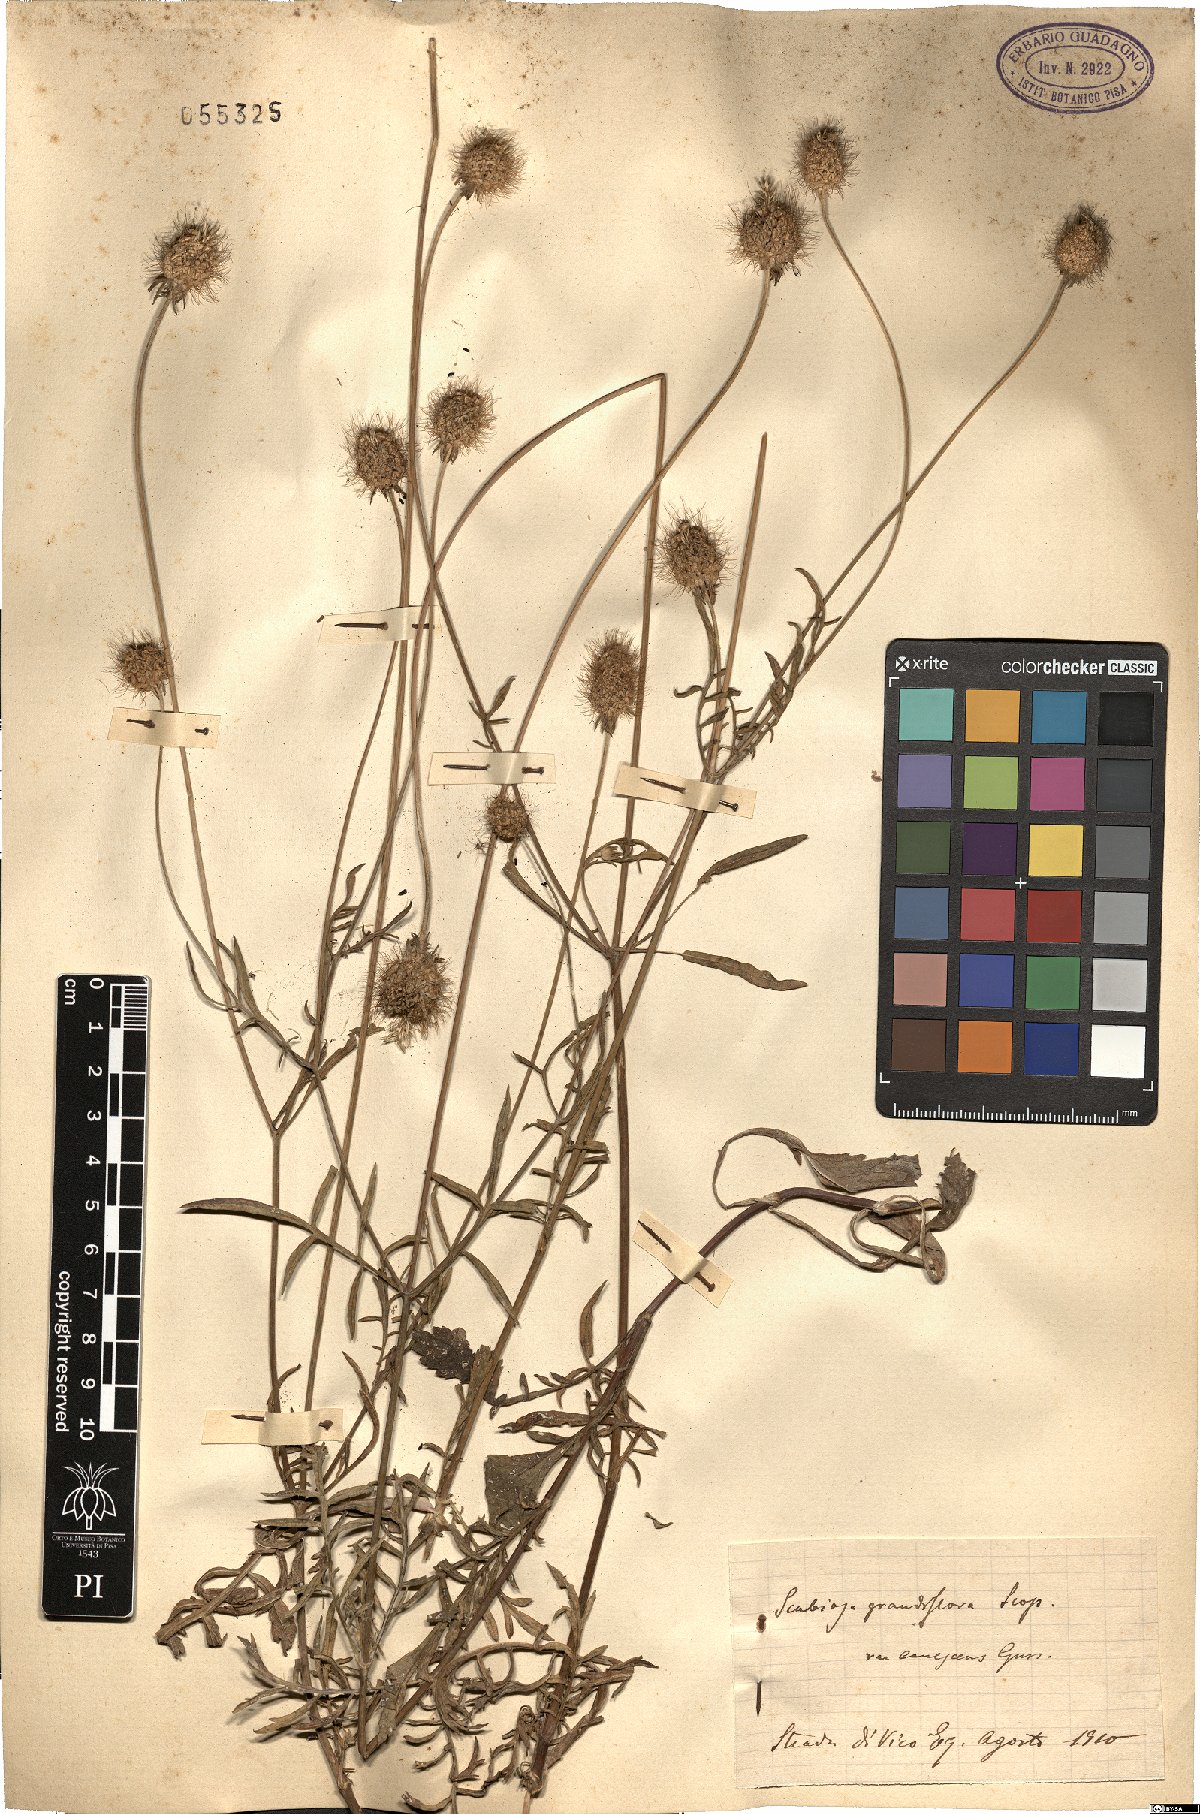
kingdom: Plantae
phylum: Tracheophyta
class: Magnoliopsida
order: Dipsacales
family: Caprifoliaceae
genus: Sixalix
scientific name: Sixalix maritima
